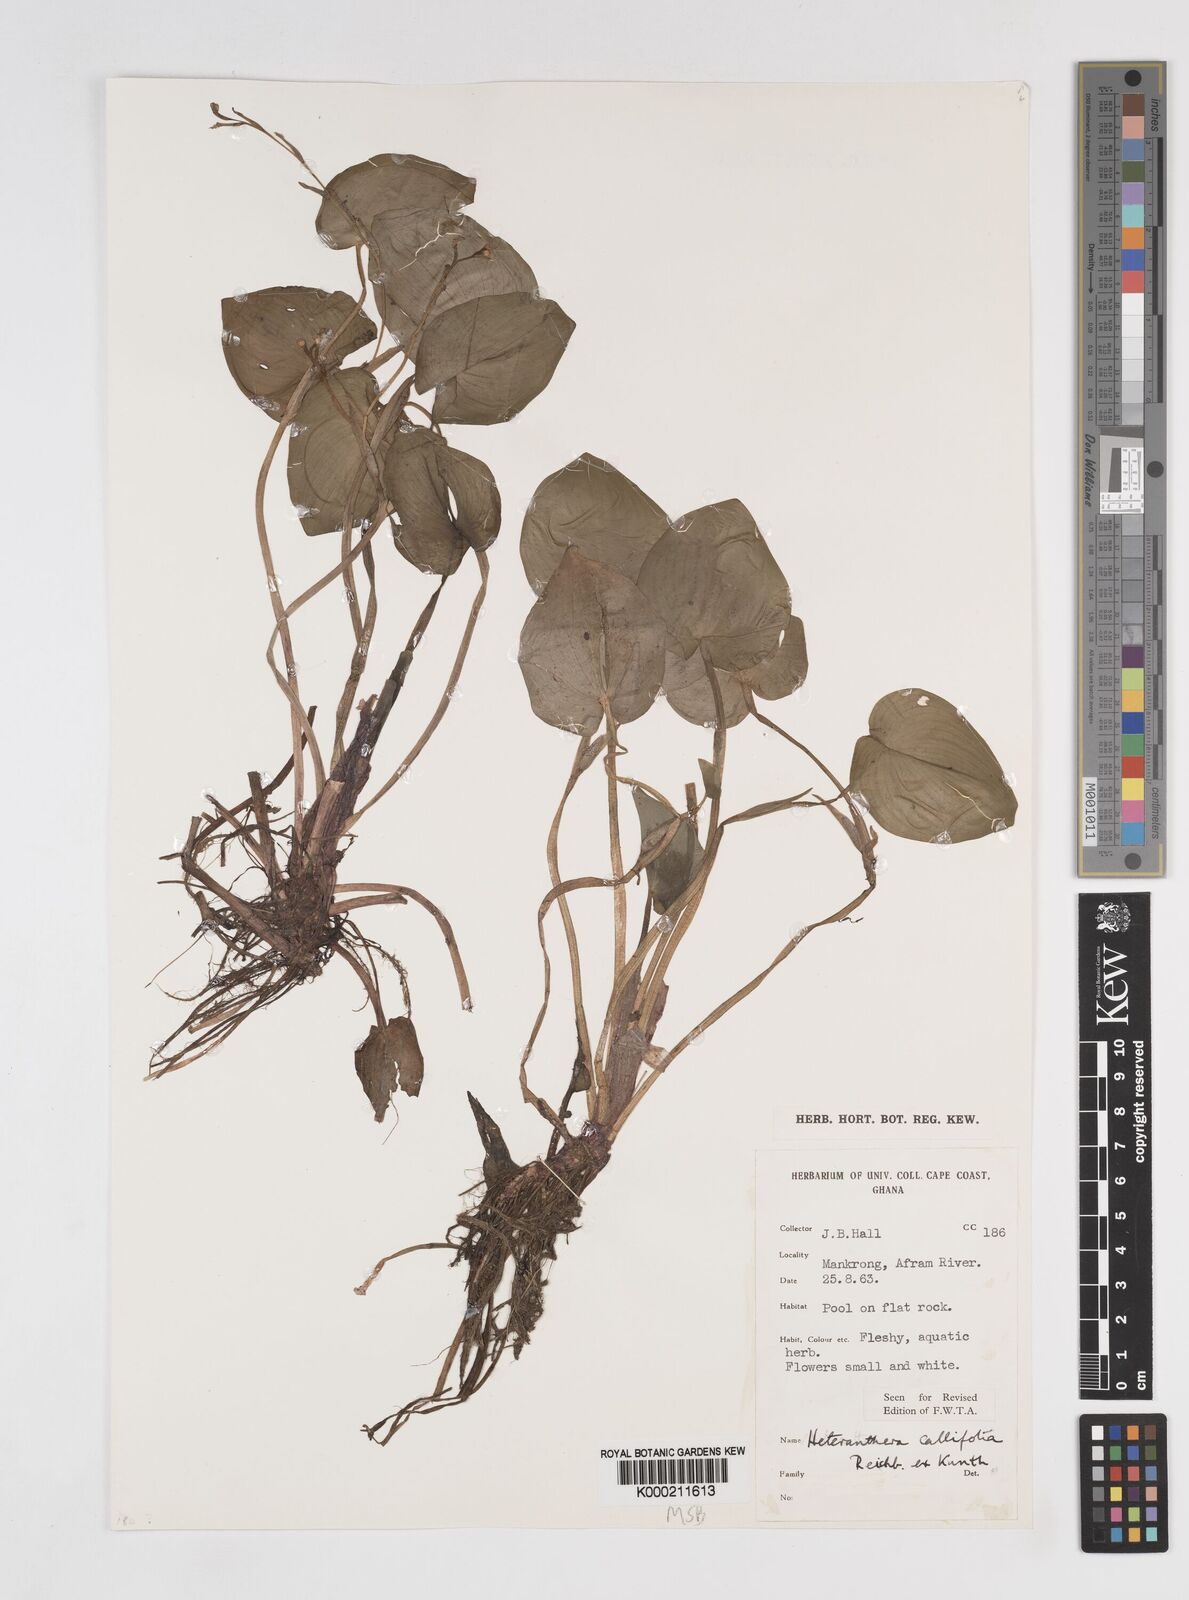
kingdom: Plantae
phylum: Tracheophyta
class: Liliopsida
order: Commelinales
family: Pontederiaceae
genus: Heteranthera
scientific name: Heteranthera callifolia
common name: Mud plantain
